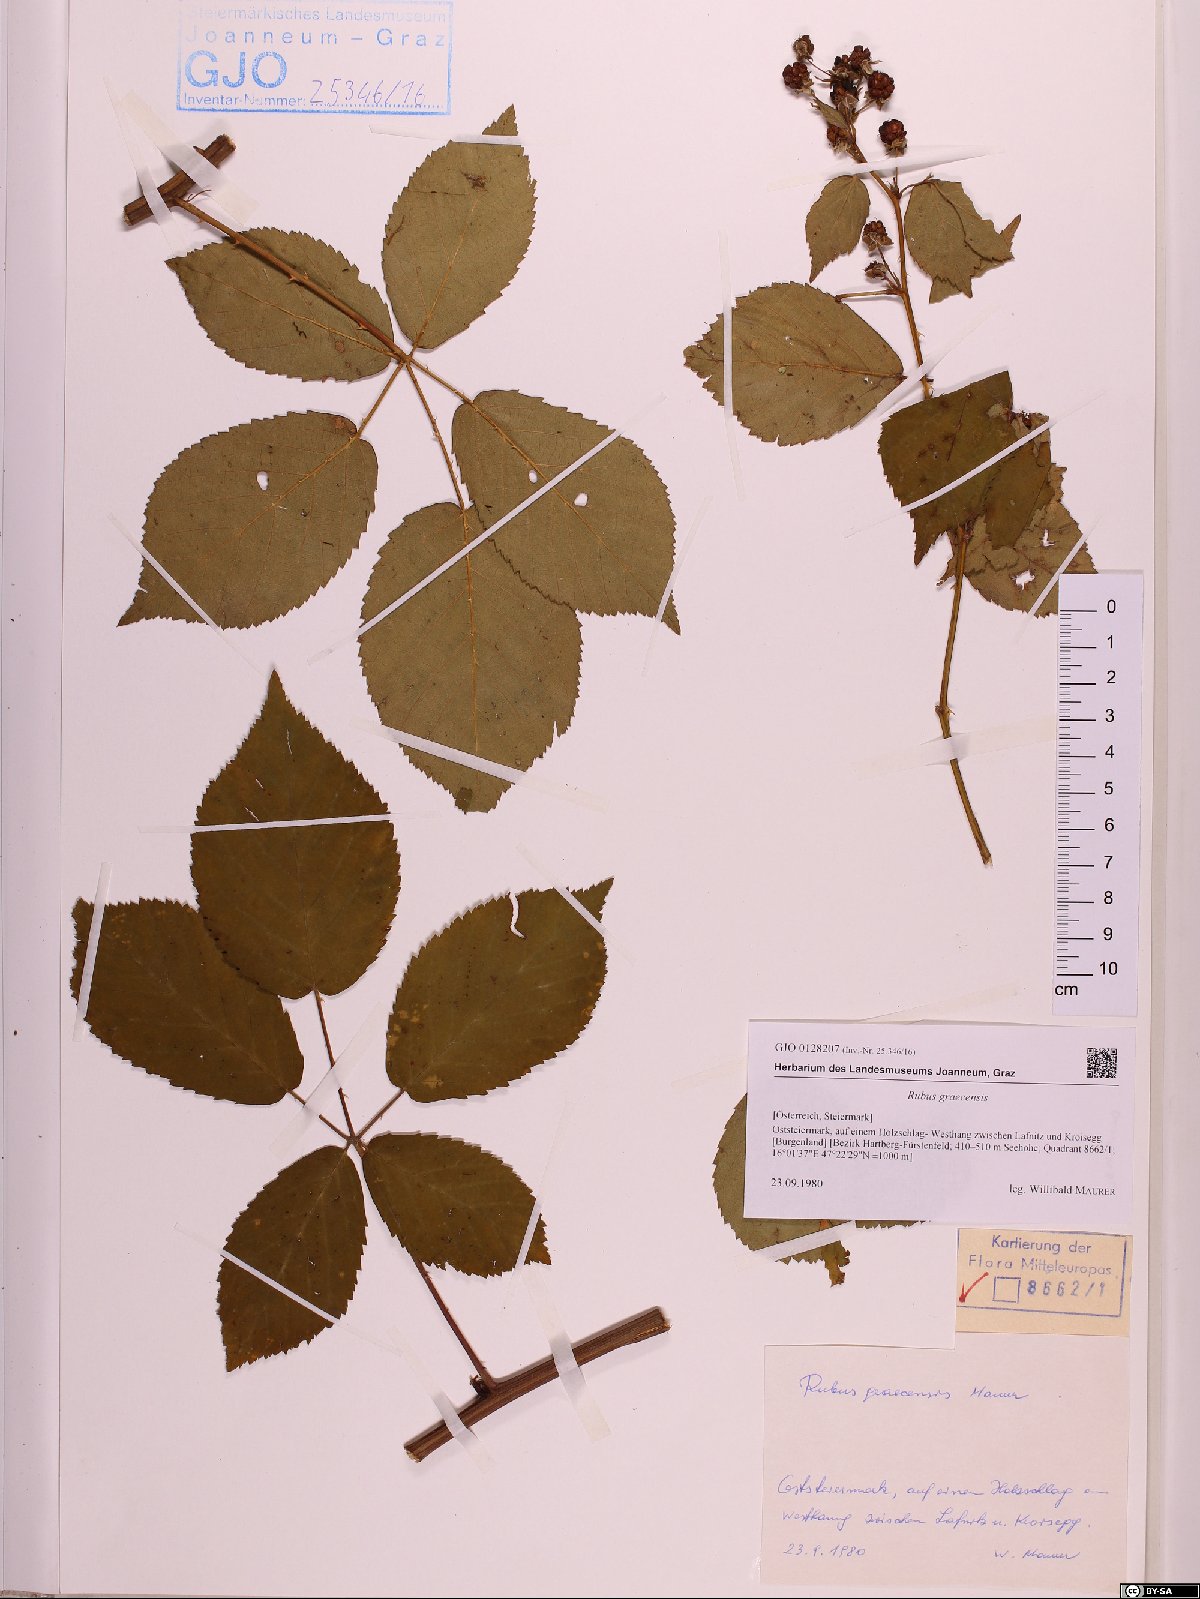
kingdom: Plantae
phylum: Tracheophyta
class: Magnoliopsida
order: Rosales
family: Rosaceae
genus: Rubus
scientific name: Rubus graecensis
